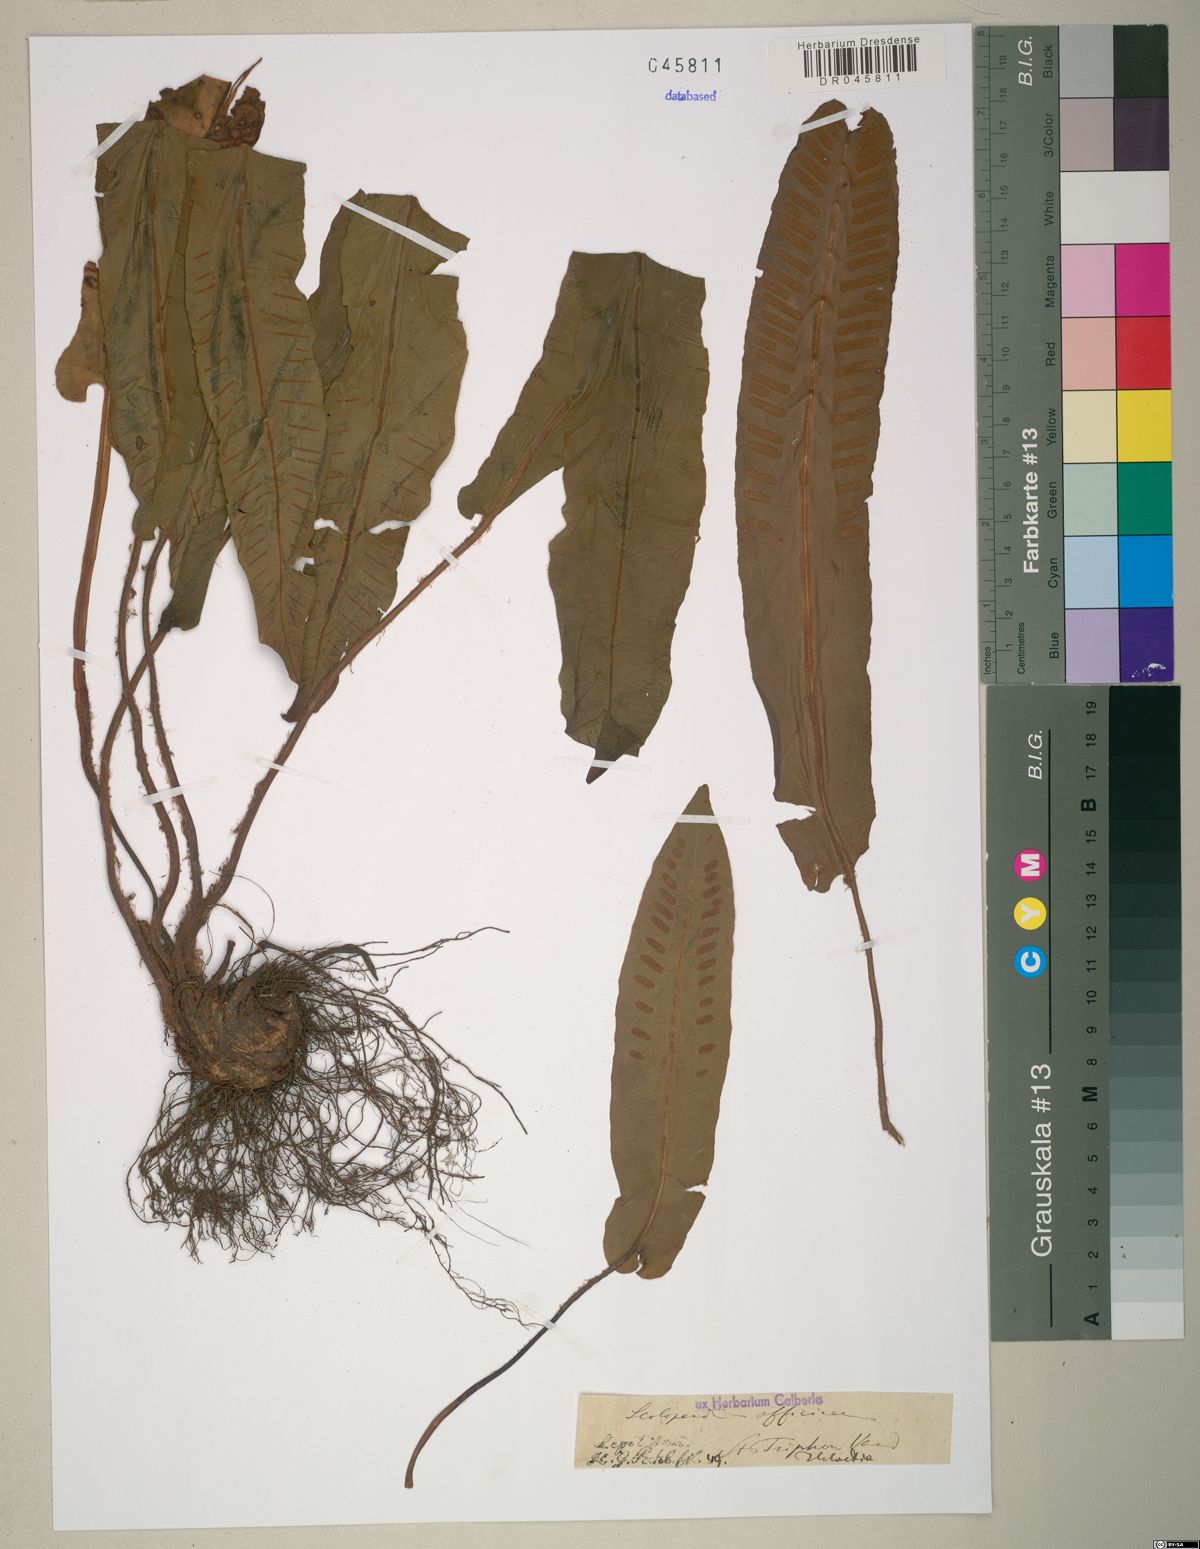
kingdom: Plantae
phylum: Tracheophyta
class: Polypodiopsida
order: Polypodiales
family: Aspleniaceae
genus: Asplenium
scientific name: Asplenium scolopendrium
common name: Hart's-tongue fern
